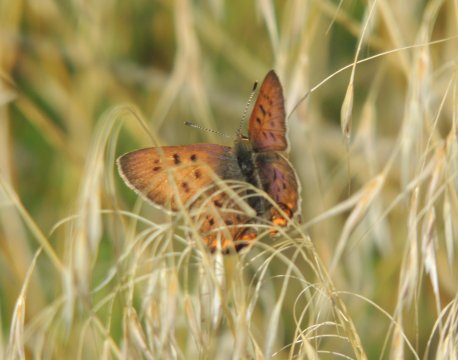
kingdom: Animalia
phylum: Arthropoda
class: Insecta
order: Lepidoptera
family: Sesiidae
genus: Sesia
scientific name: Sesia Lycaena helloides
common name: Purplish Copper
